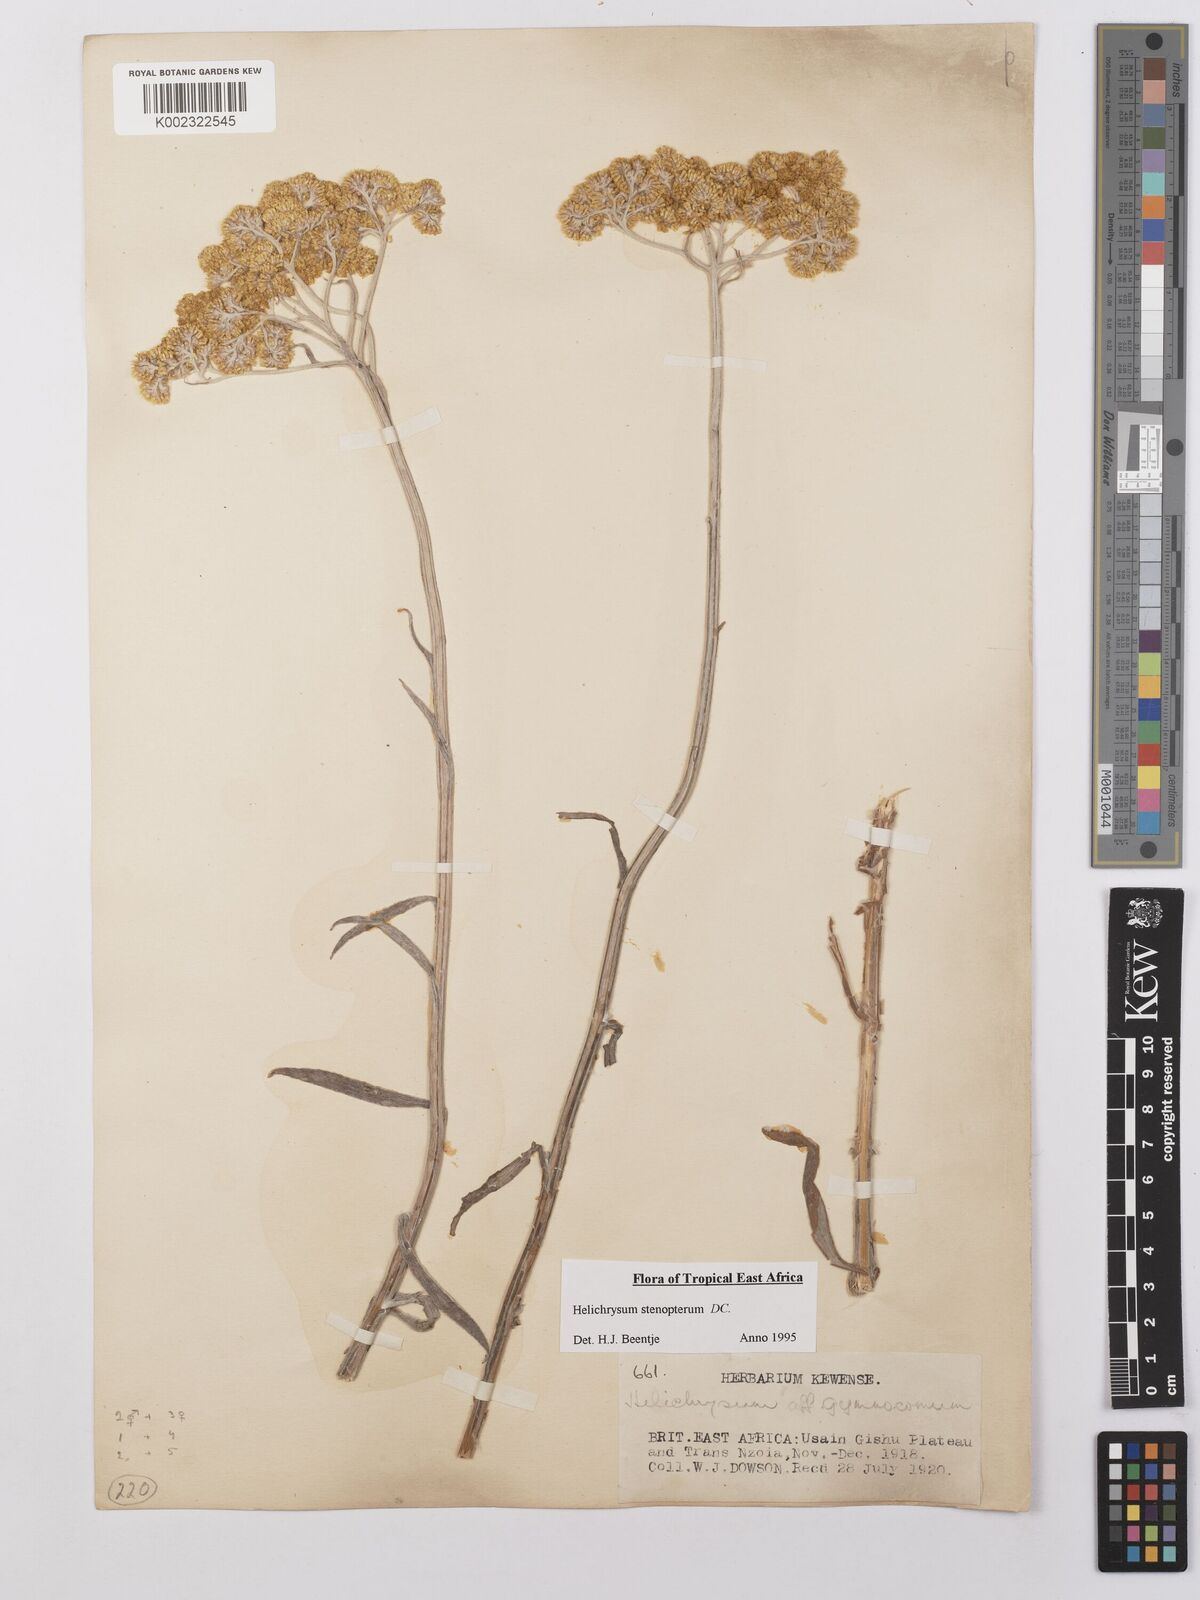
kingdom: Plantae
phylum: Tracheophyta
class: Magnoliopsida
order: Asterales
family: Asteraceae
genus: Helichrysum
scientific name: Helichrysum stenopterum
